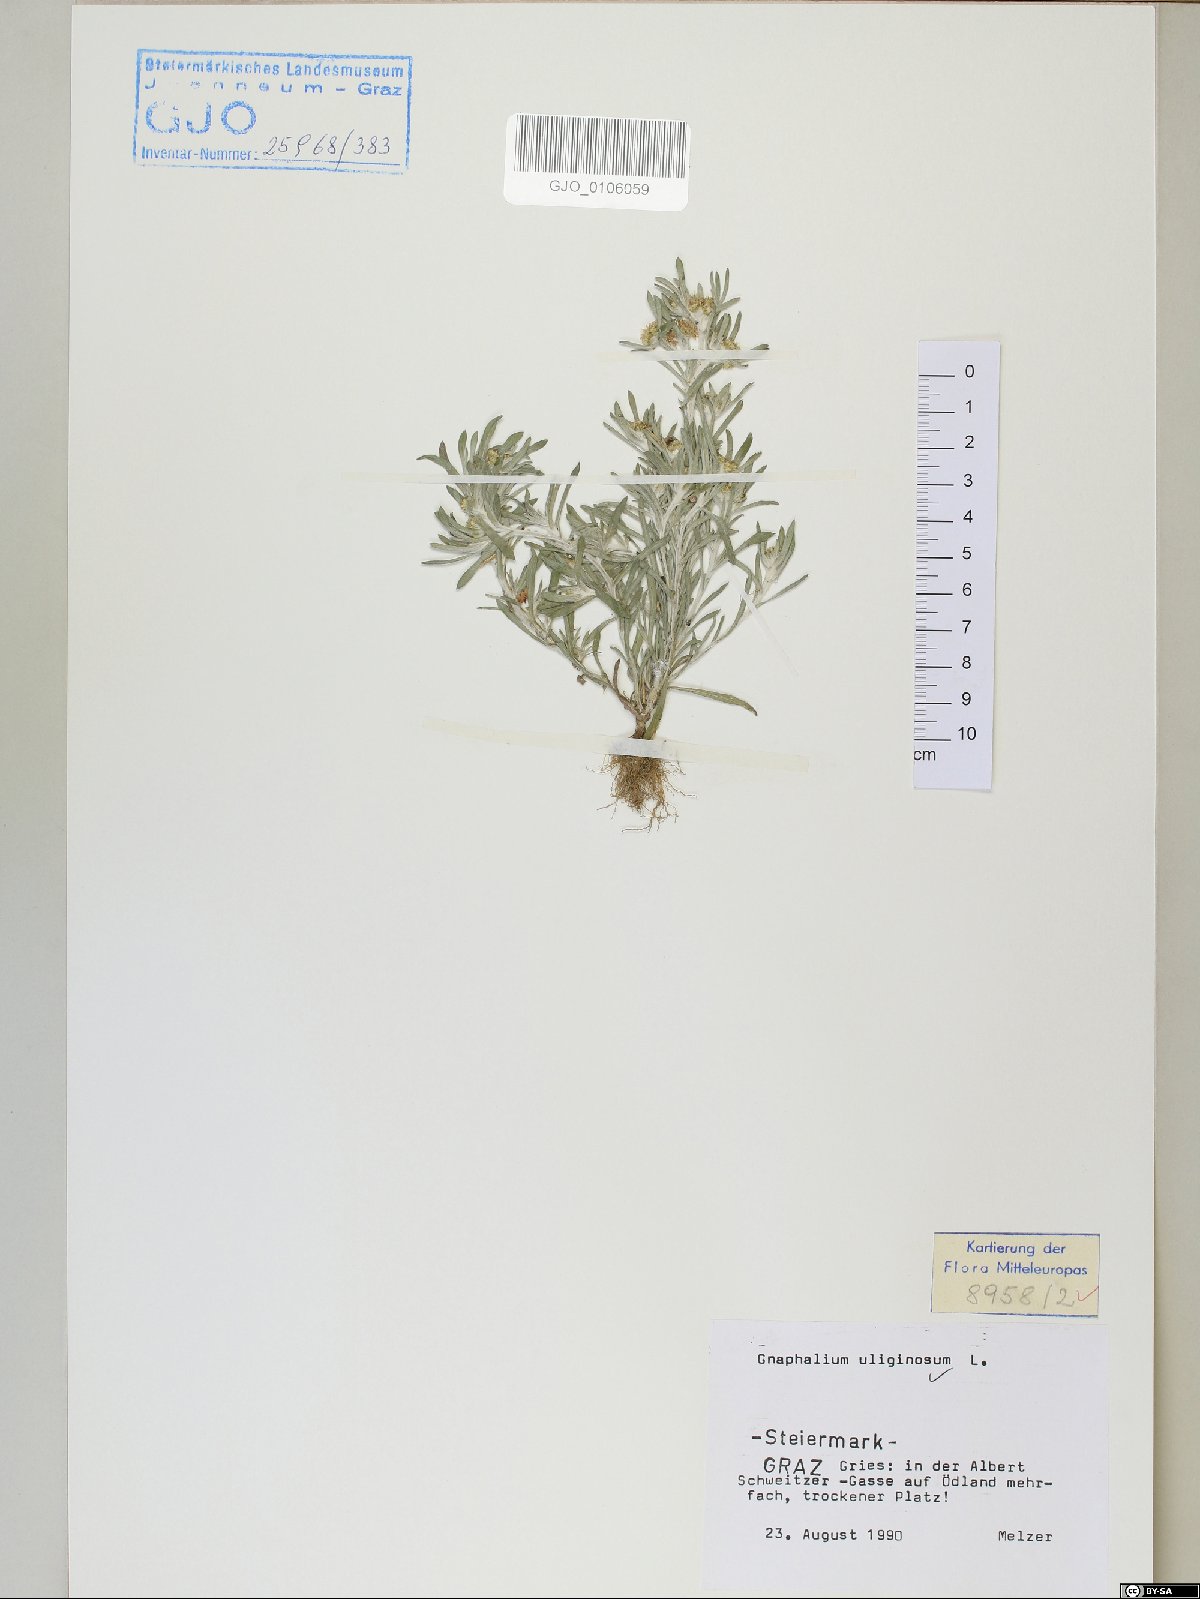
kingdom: Plantae
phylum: Tracheophyta
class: Magnoliopsida
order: Asterales
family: Asteraceae
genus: Gnaphalium
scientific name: Gnaphalium uliginosum
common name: Marsh cudweed
